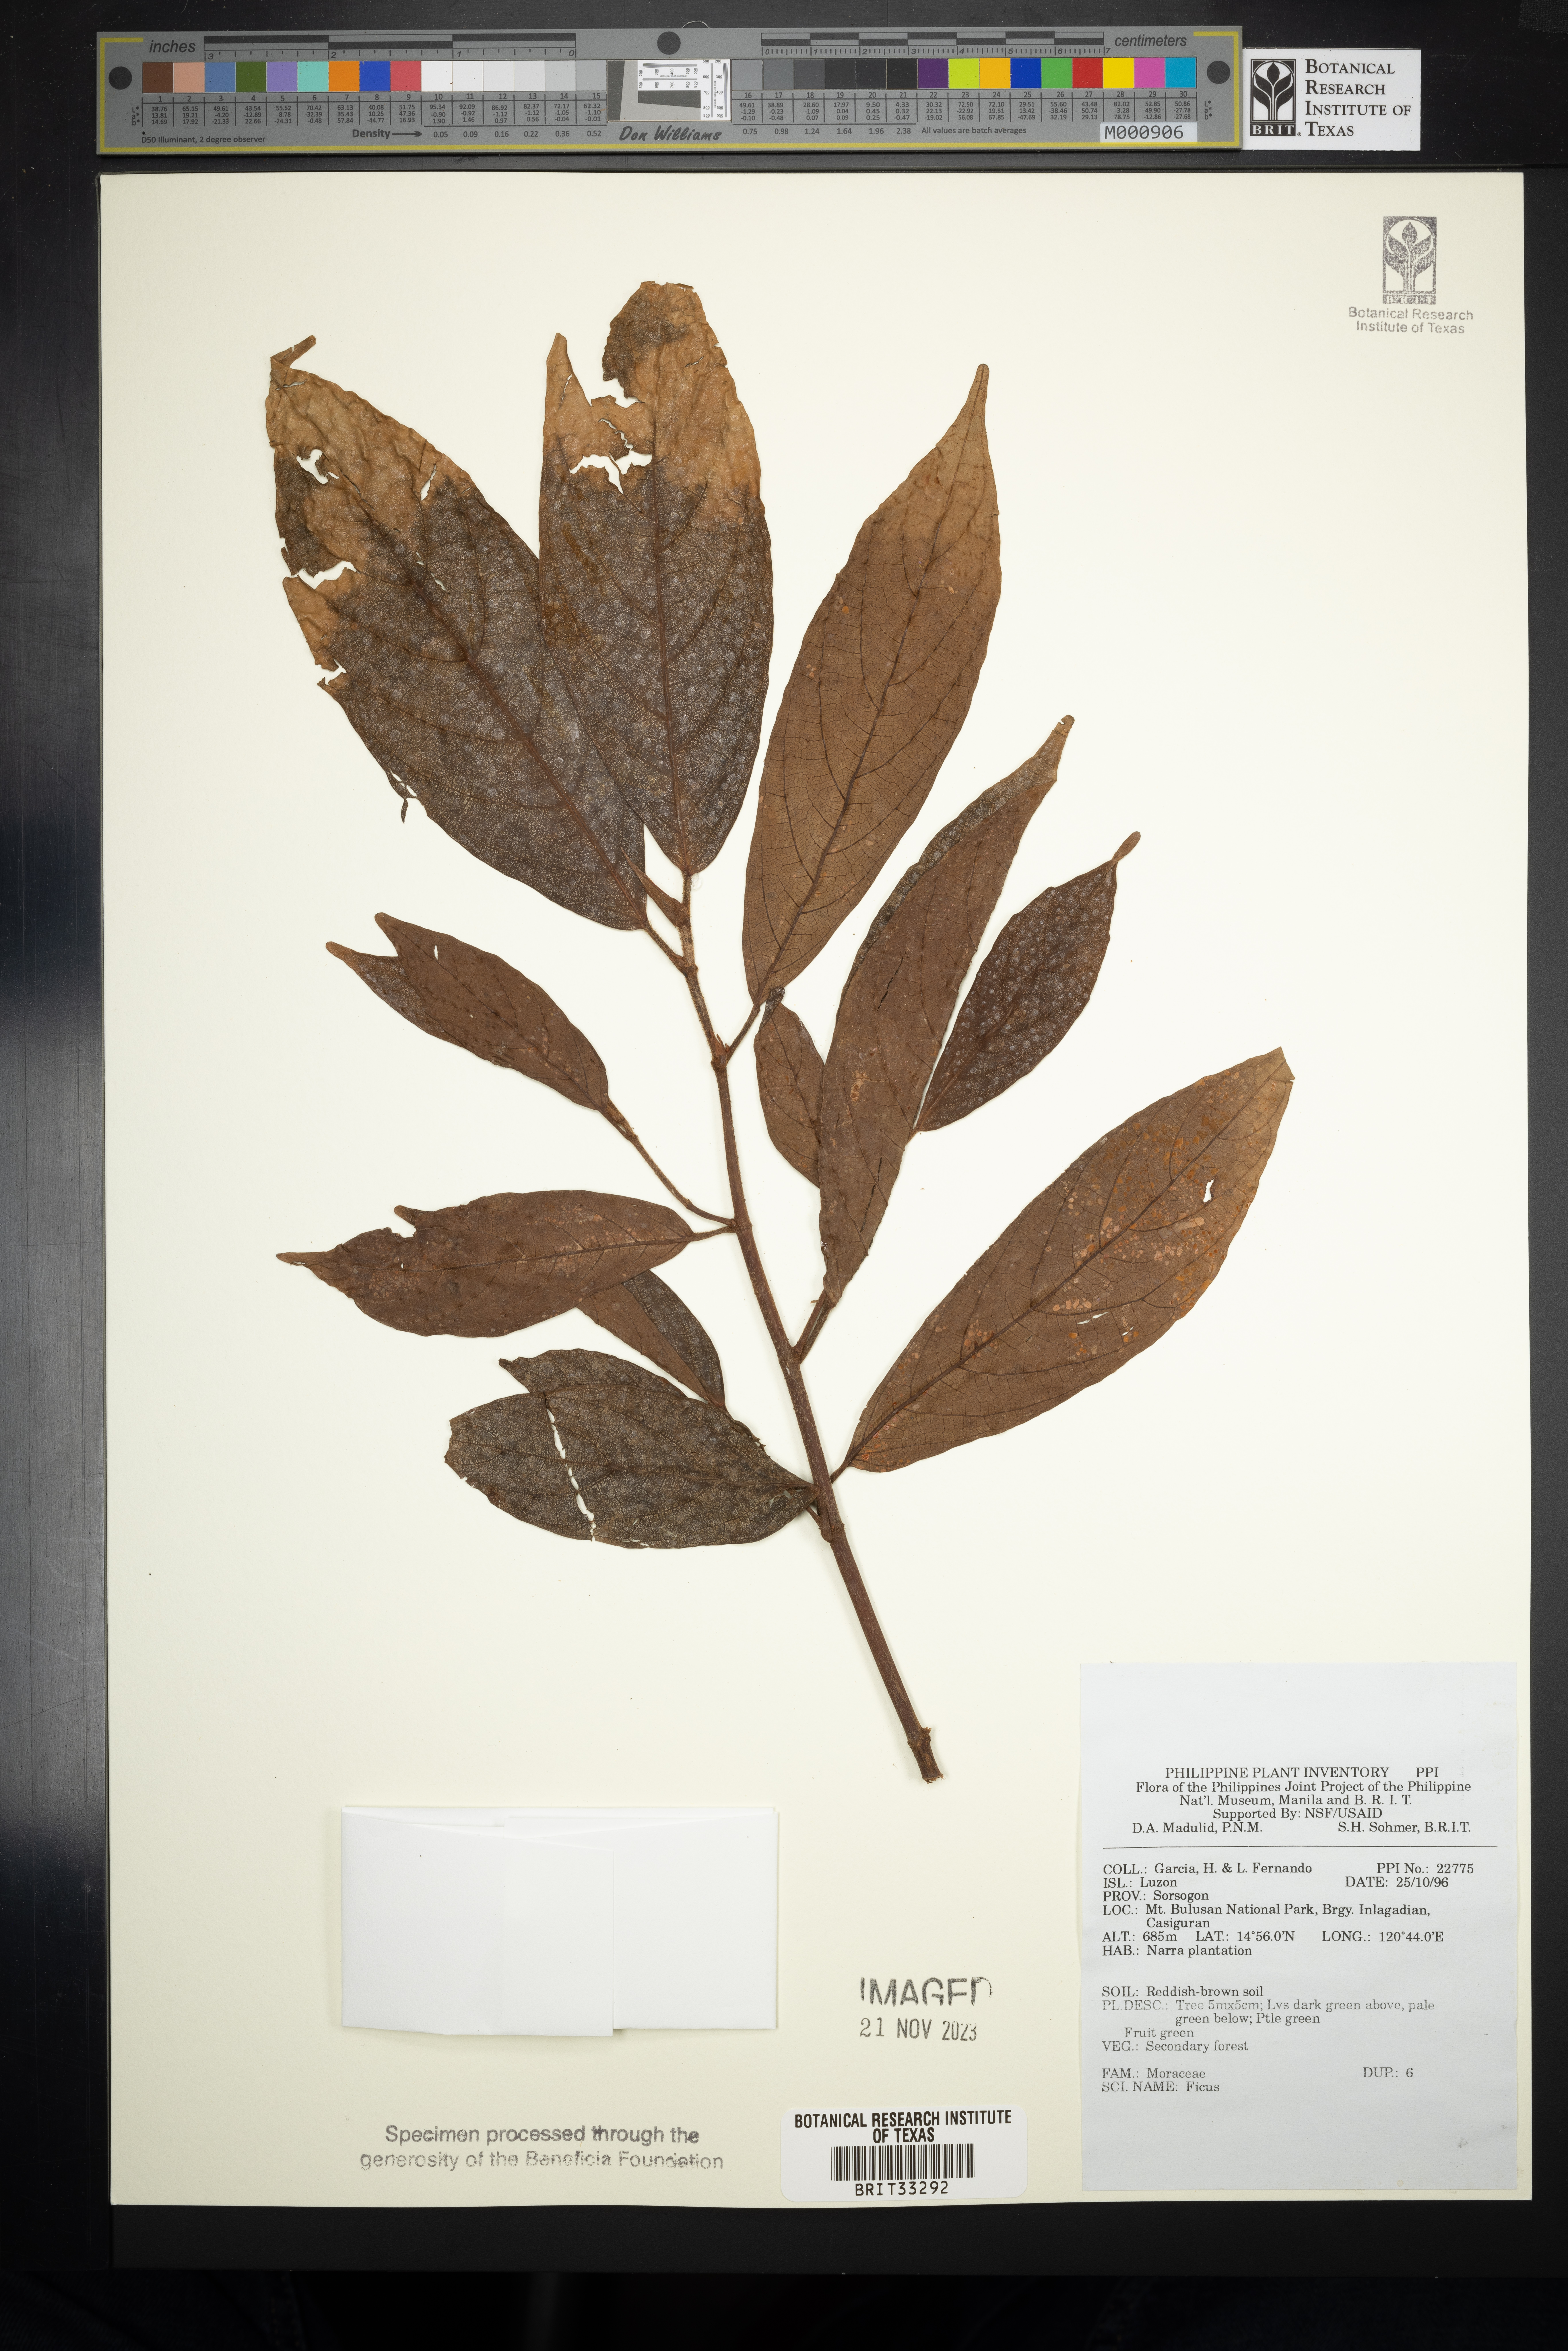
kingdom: Plantae
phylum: Tracheophyta
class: Magnoliopsida
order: Rosales
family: Moraceae
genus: Ficus
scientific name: Ficus
